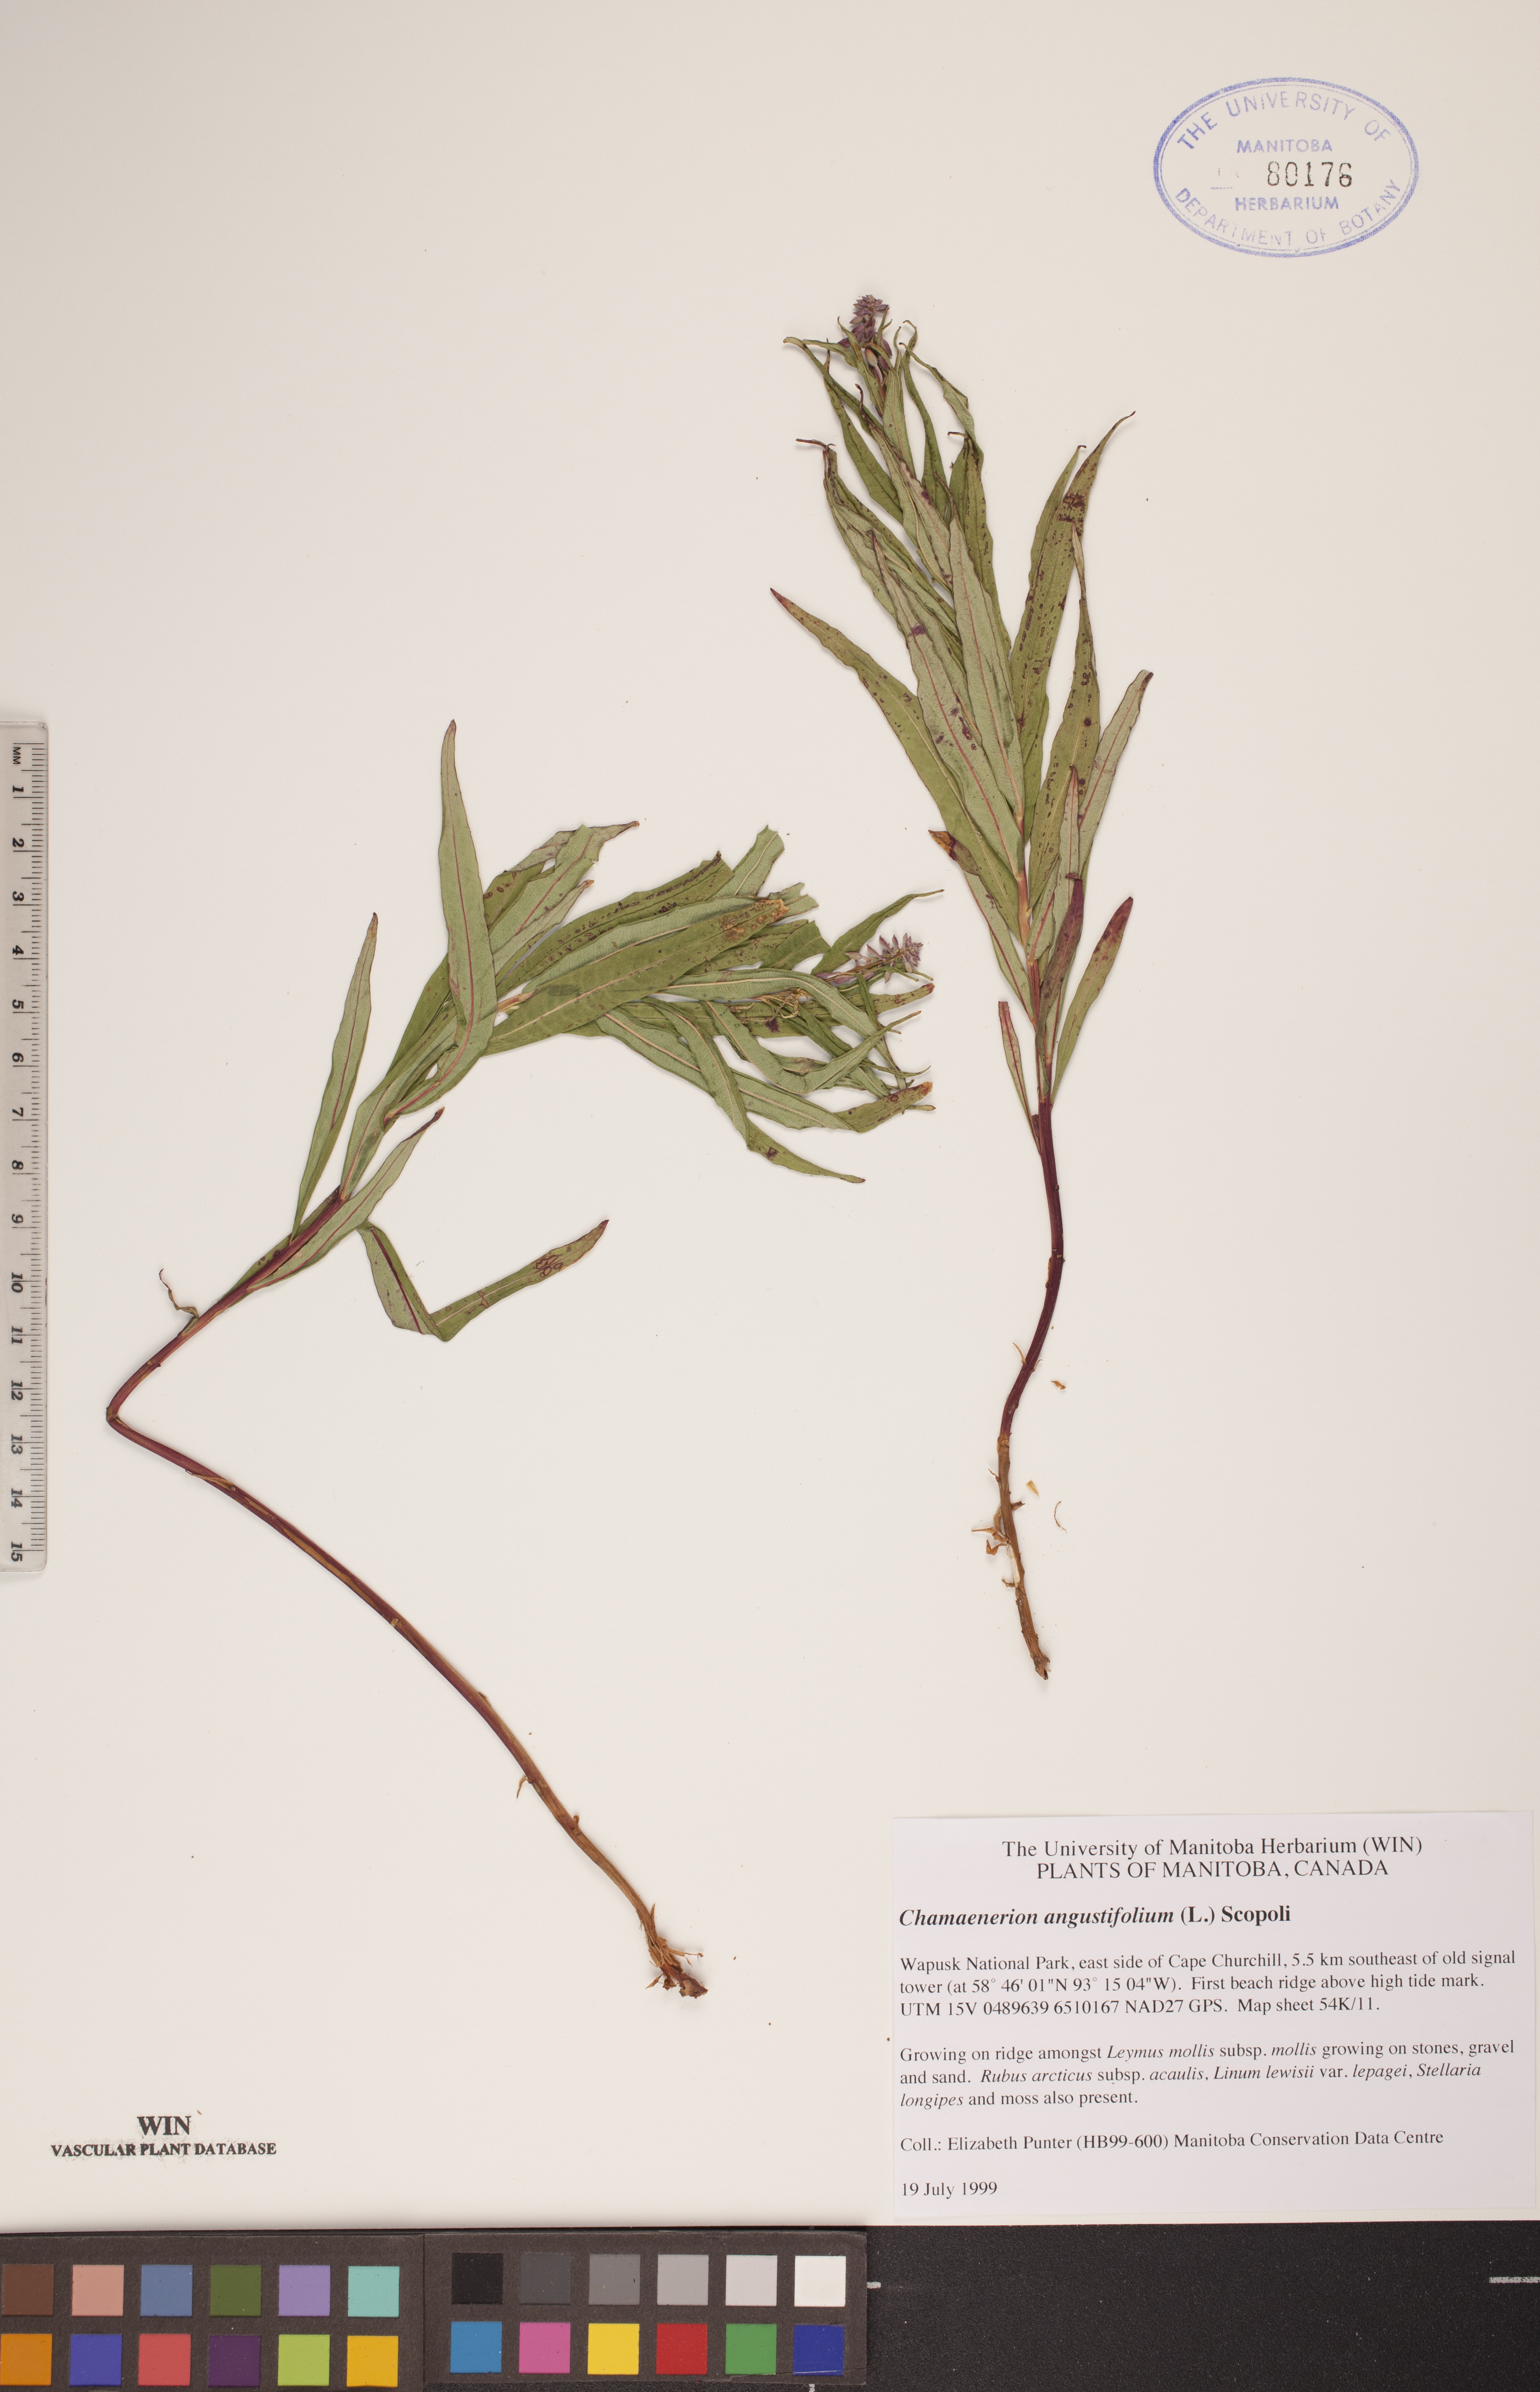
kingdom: Plantae
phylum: Tracheophyta
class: Magnoliopsida
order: Myrtales
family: Onagraceae
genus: Chamaenerion
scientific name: Chamaenerion angustifolium
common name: Fireweed
